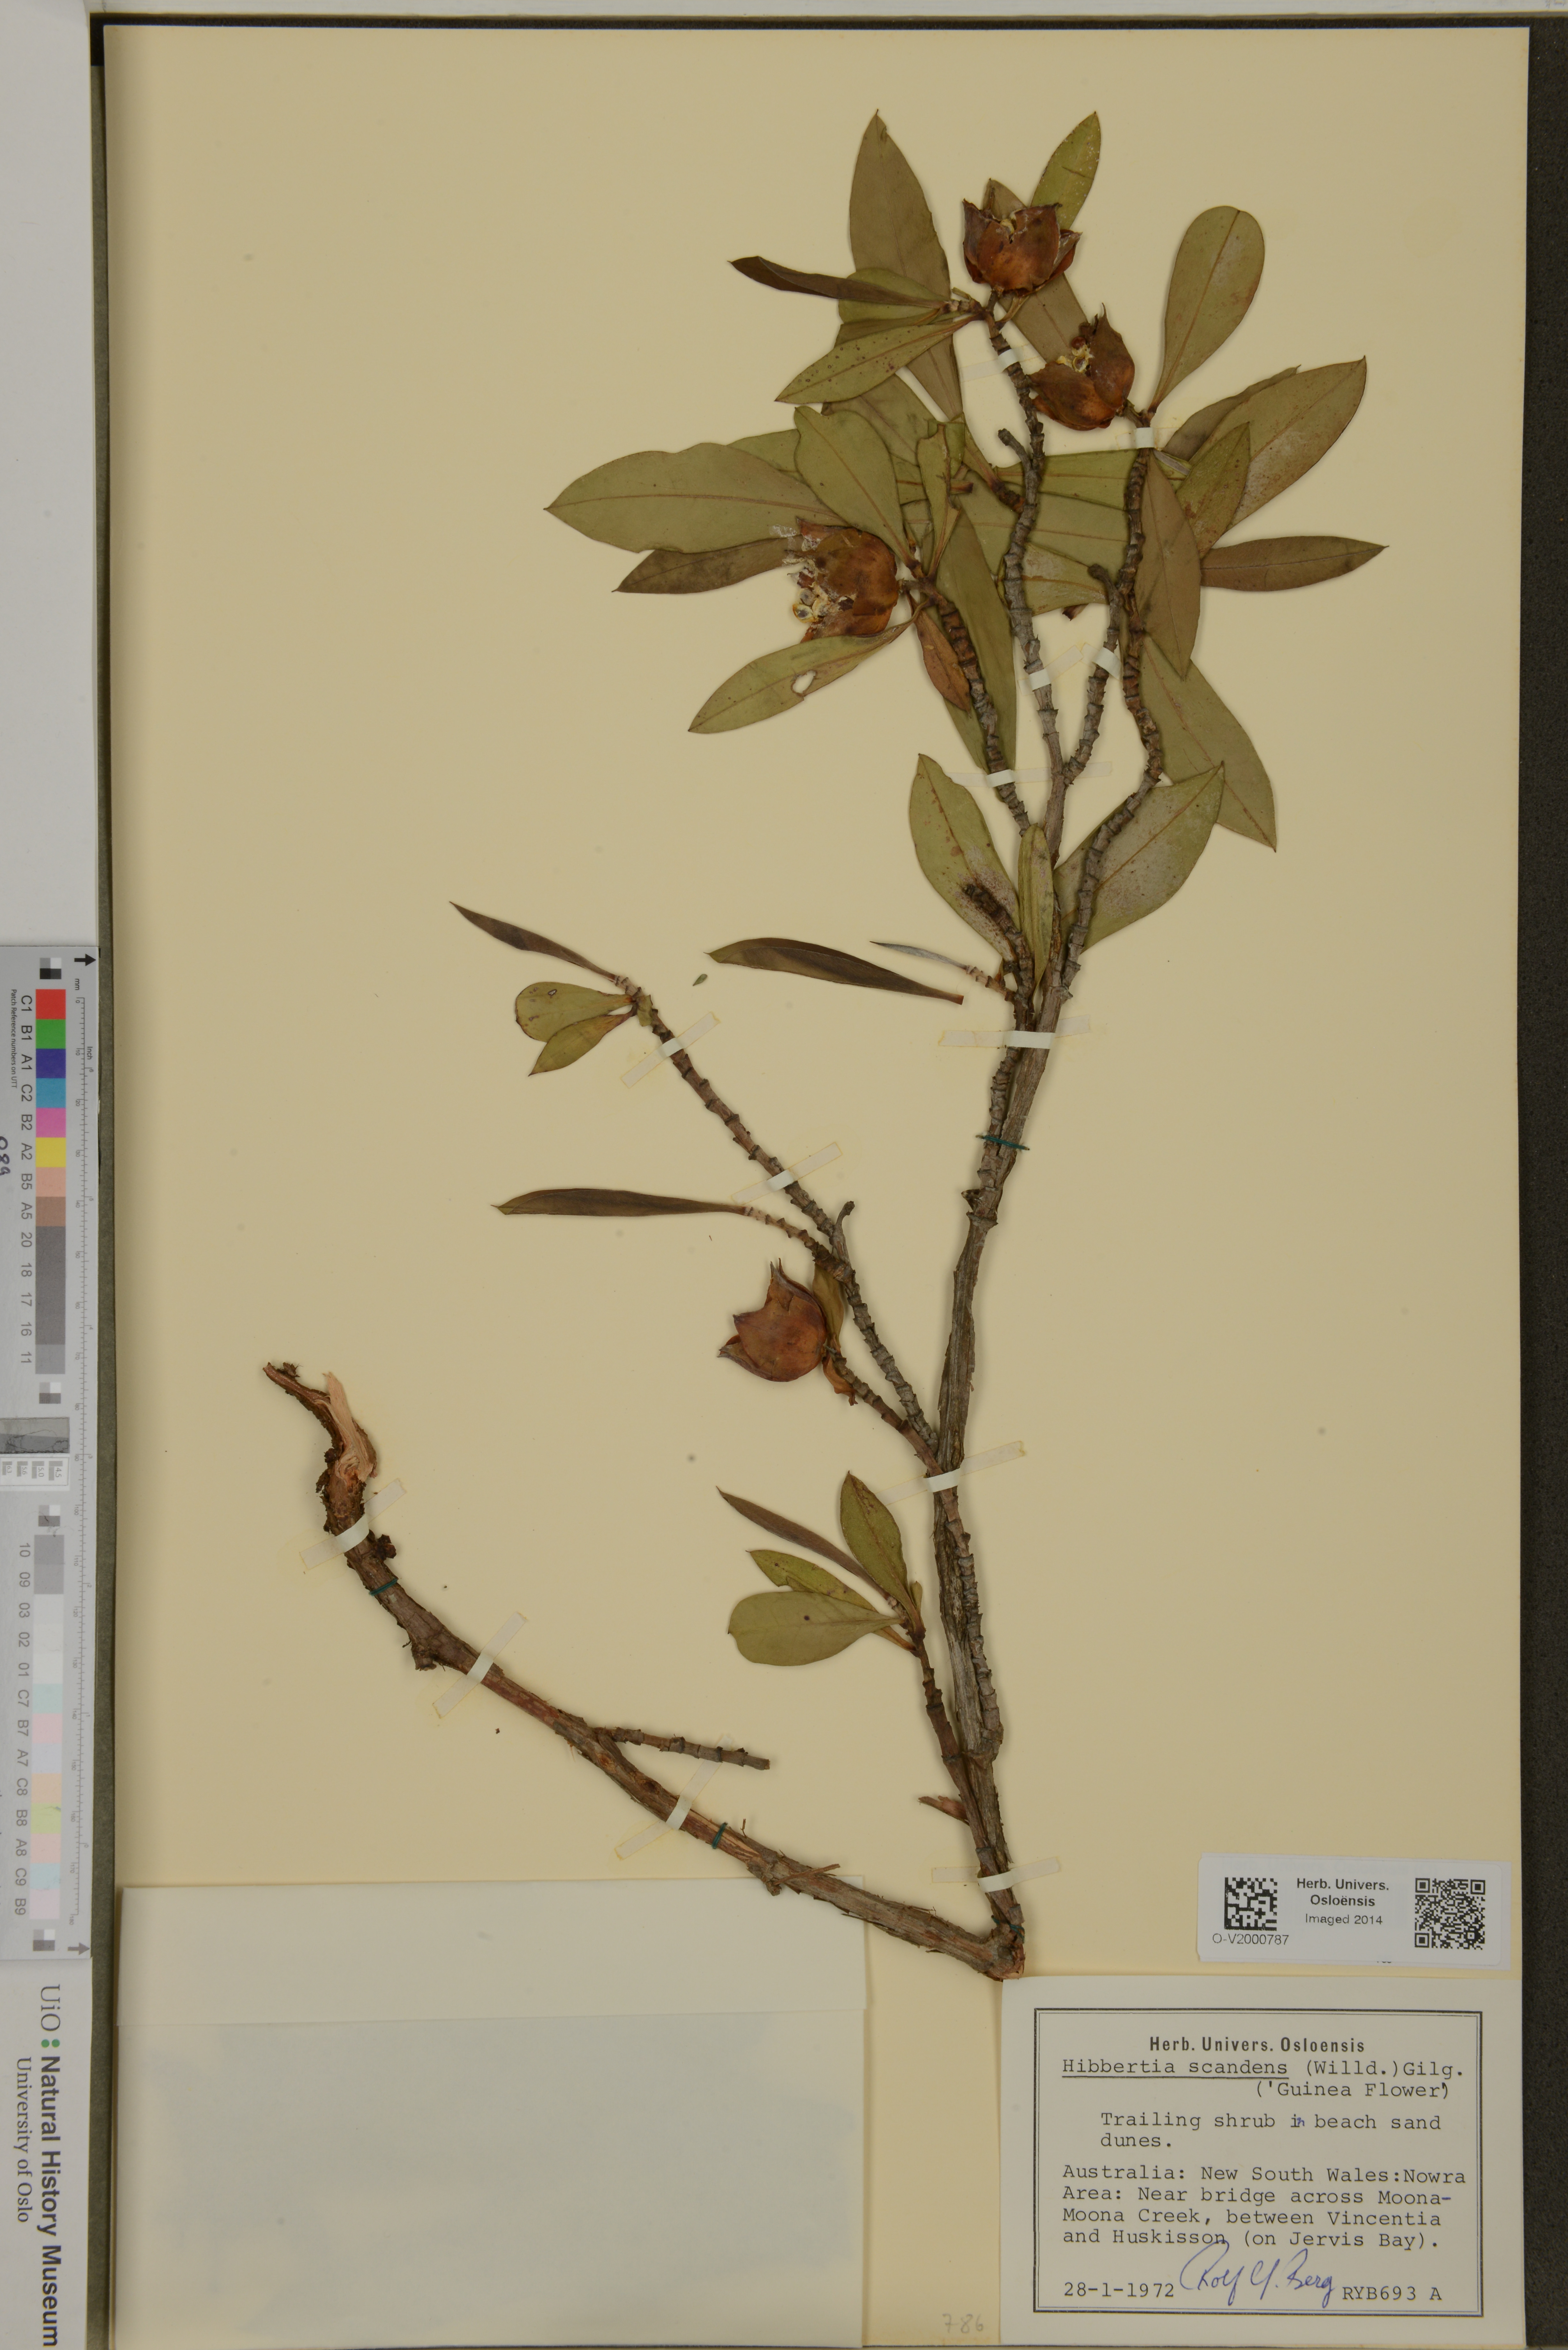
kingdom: Plantae
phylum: Tracheophyta
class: Magnoliopsida
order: Dilleniales
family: Dilleniaceae
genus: Hibbertia
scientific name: Hibbertia scandens
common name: Climbing guinea-flower
